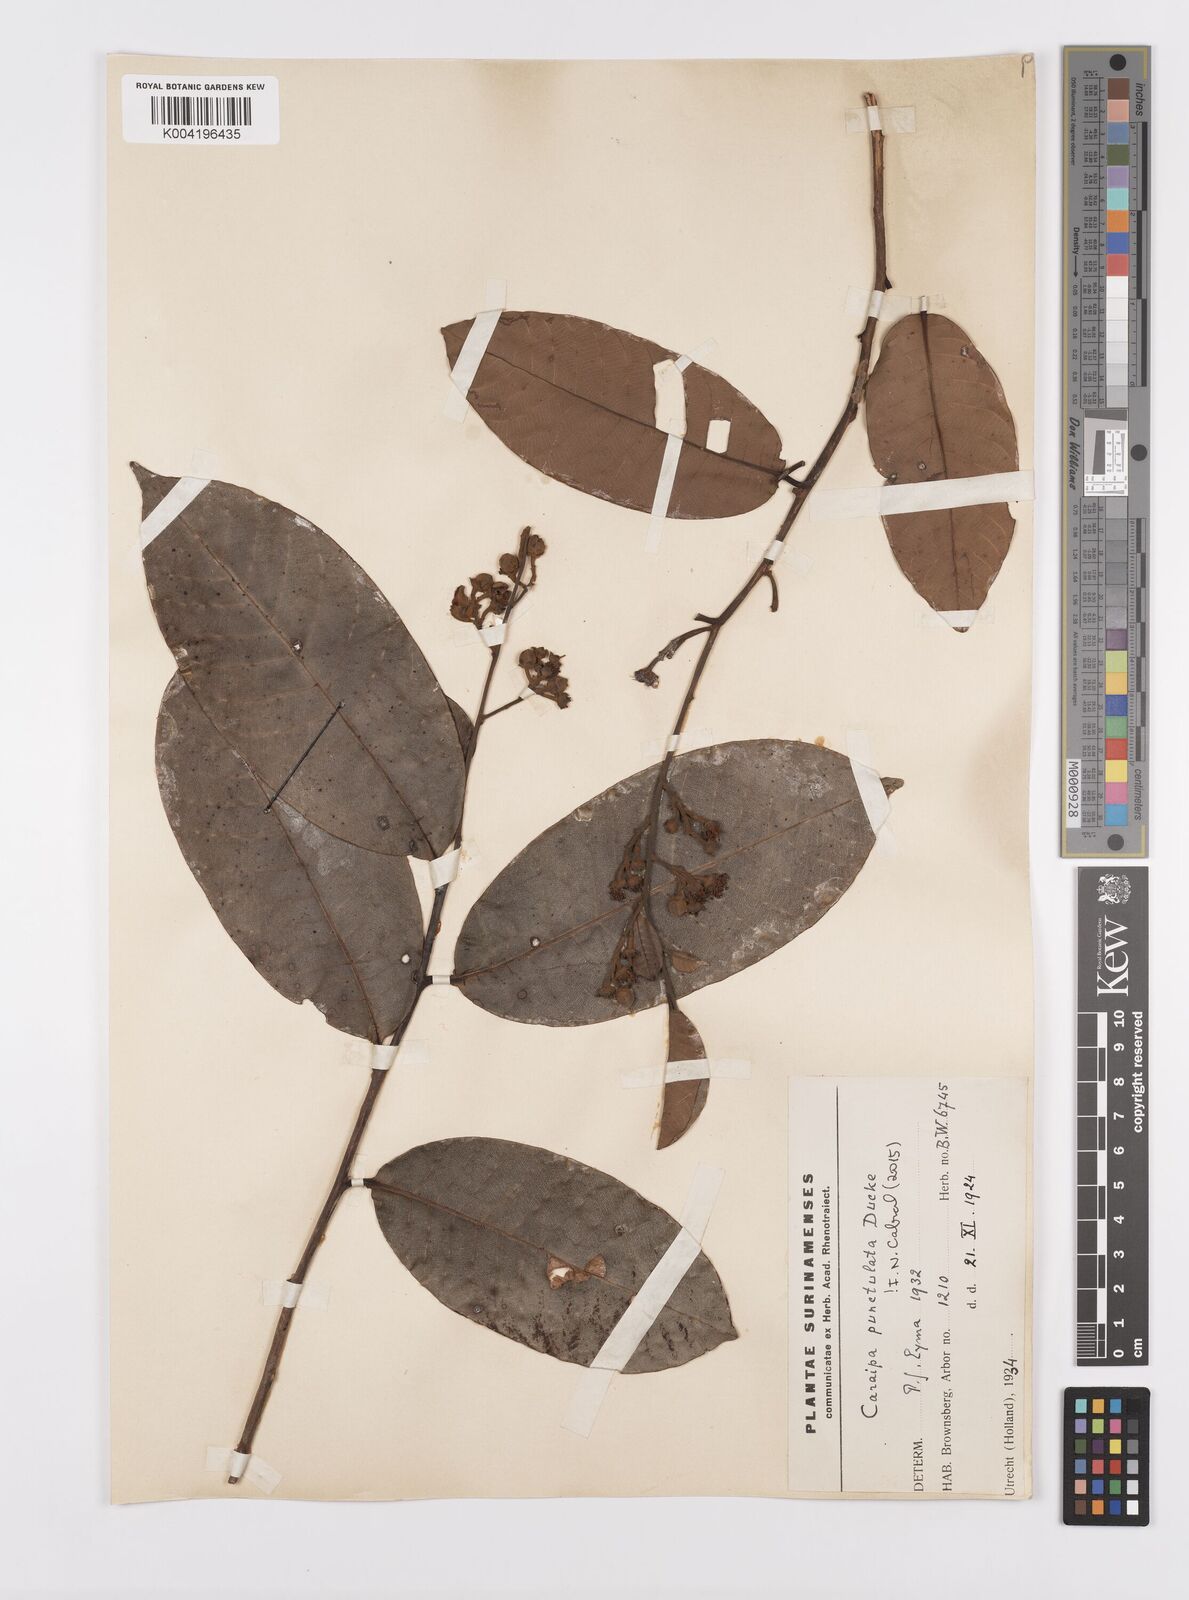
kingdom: Plantae
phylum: Tracheophyta
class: Magnoliopsida
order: Malpighiales
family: Calophyllaceae
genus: Caraipa
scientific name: Caraipa punctulata
